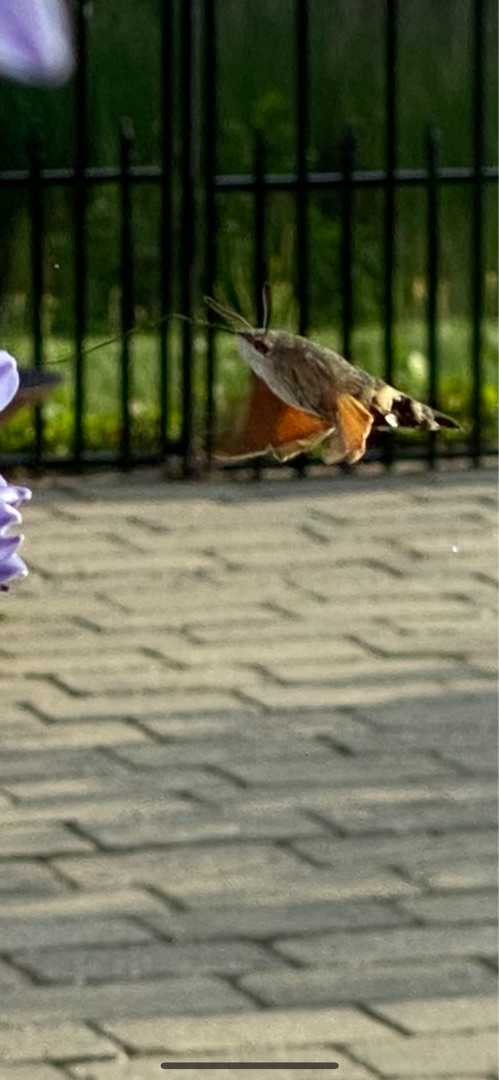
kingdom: Animalia
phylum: Arthropoda
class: Insecta
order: Lepidoptera
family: Sphingidae
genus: Macroglossum
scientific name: Macroglossum stellatarum
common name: Duehale
